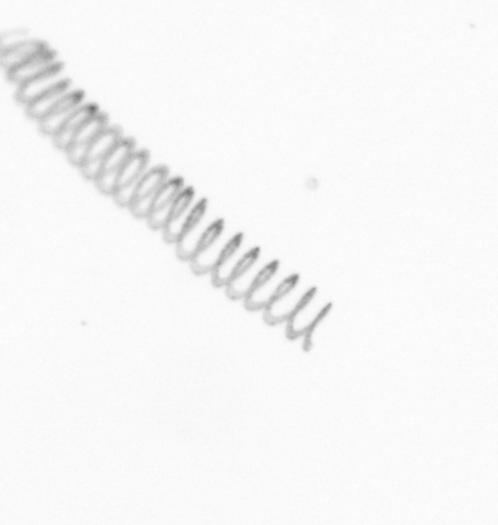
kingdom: Chromista
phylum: Ochrophyta
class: Bacillariophyceae
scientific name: Bacillariophyceae
